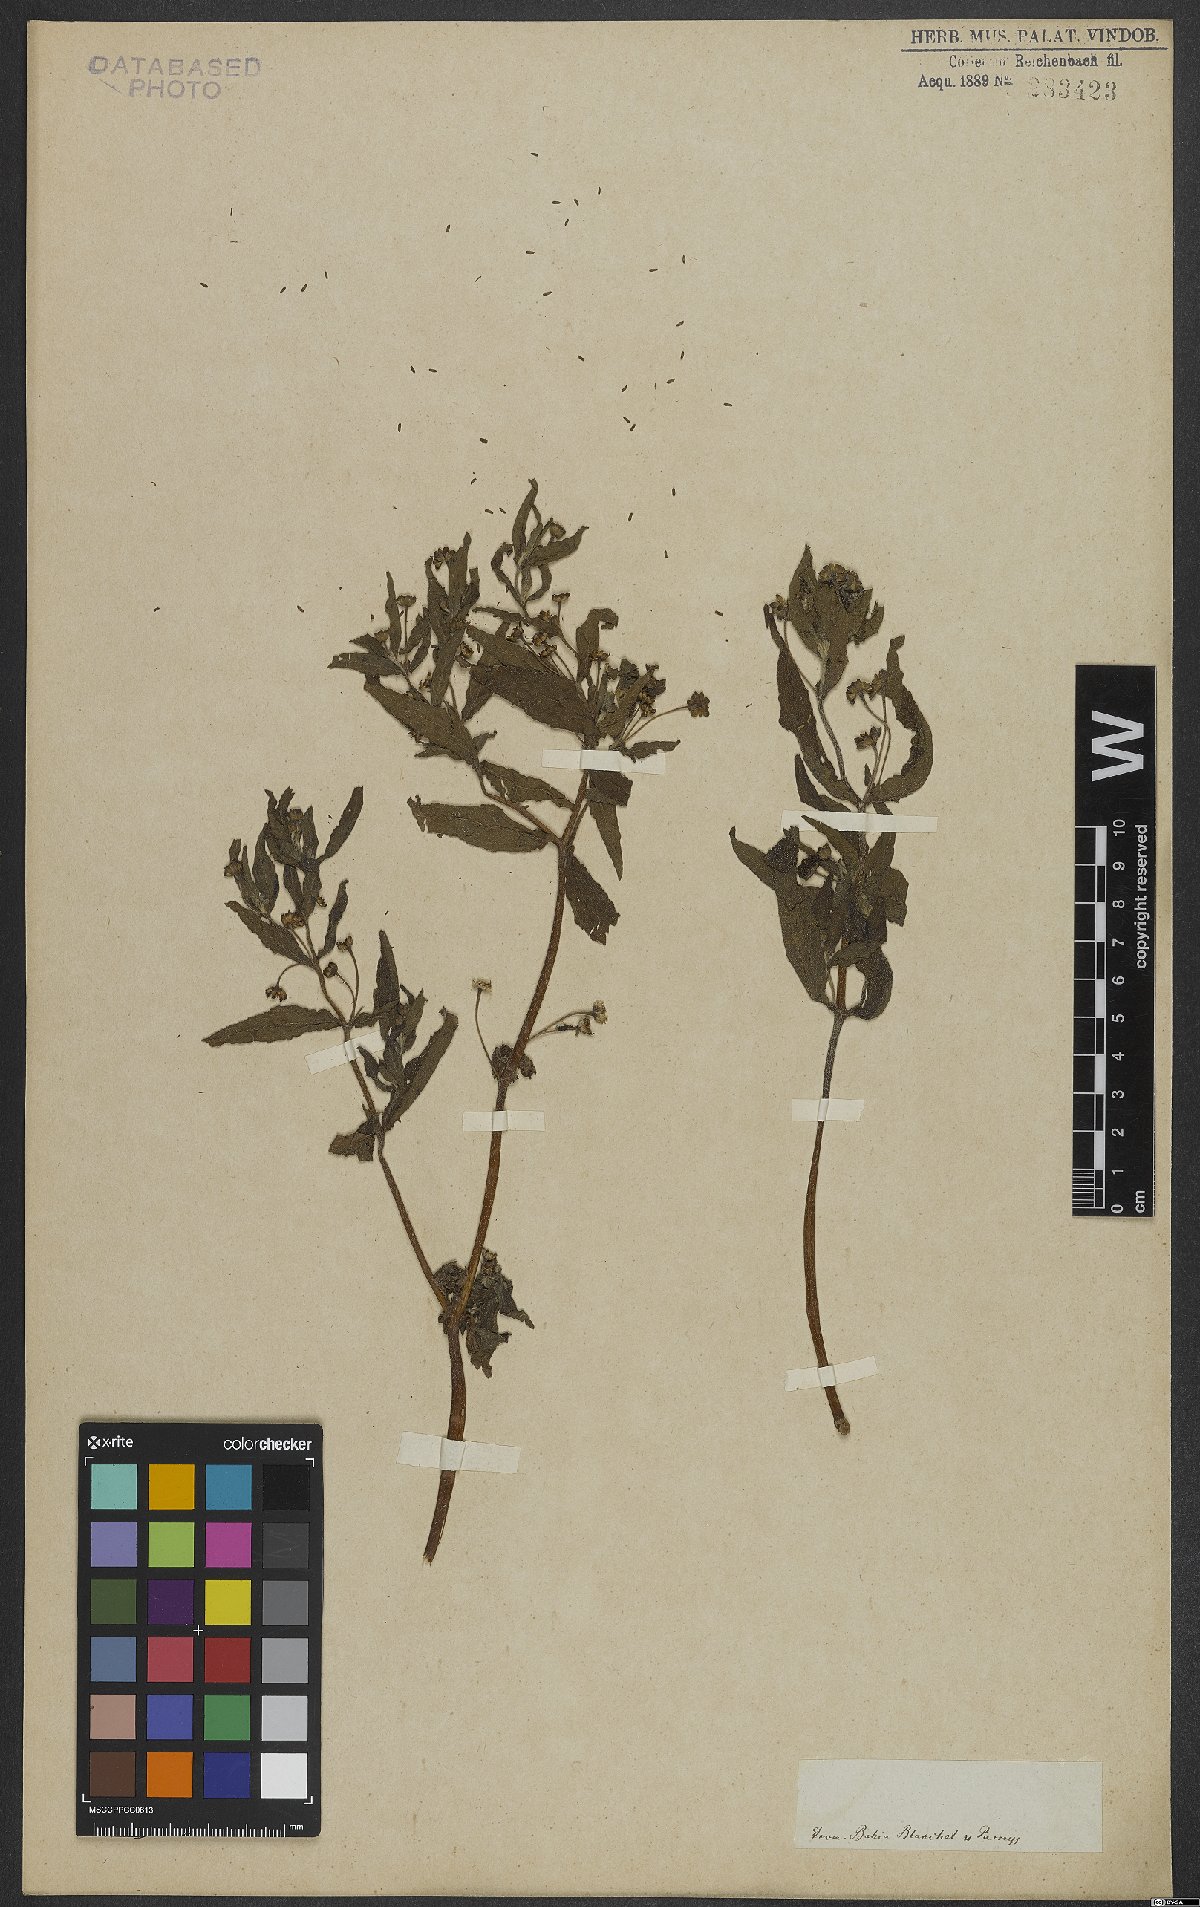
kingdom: Plantae
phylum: Tracheophyta
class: Magnoliopsida
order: Asterales
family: Asteraceae
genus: Eclipta
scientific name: Eclipta alba
